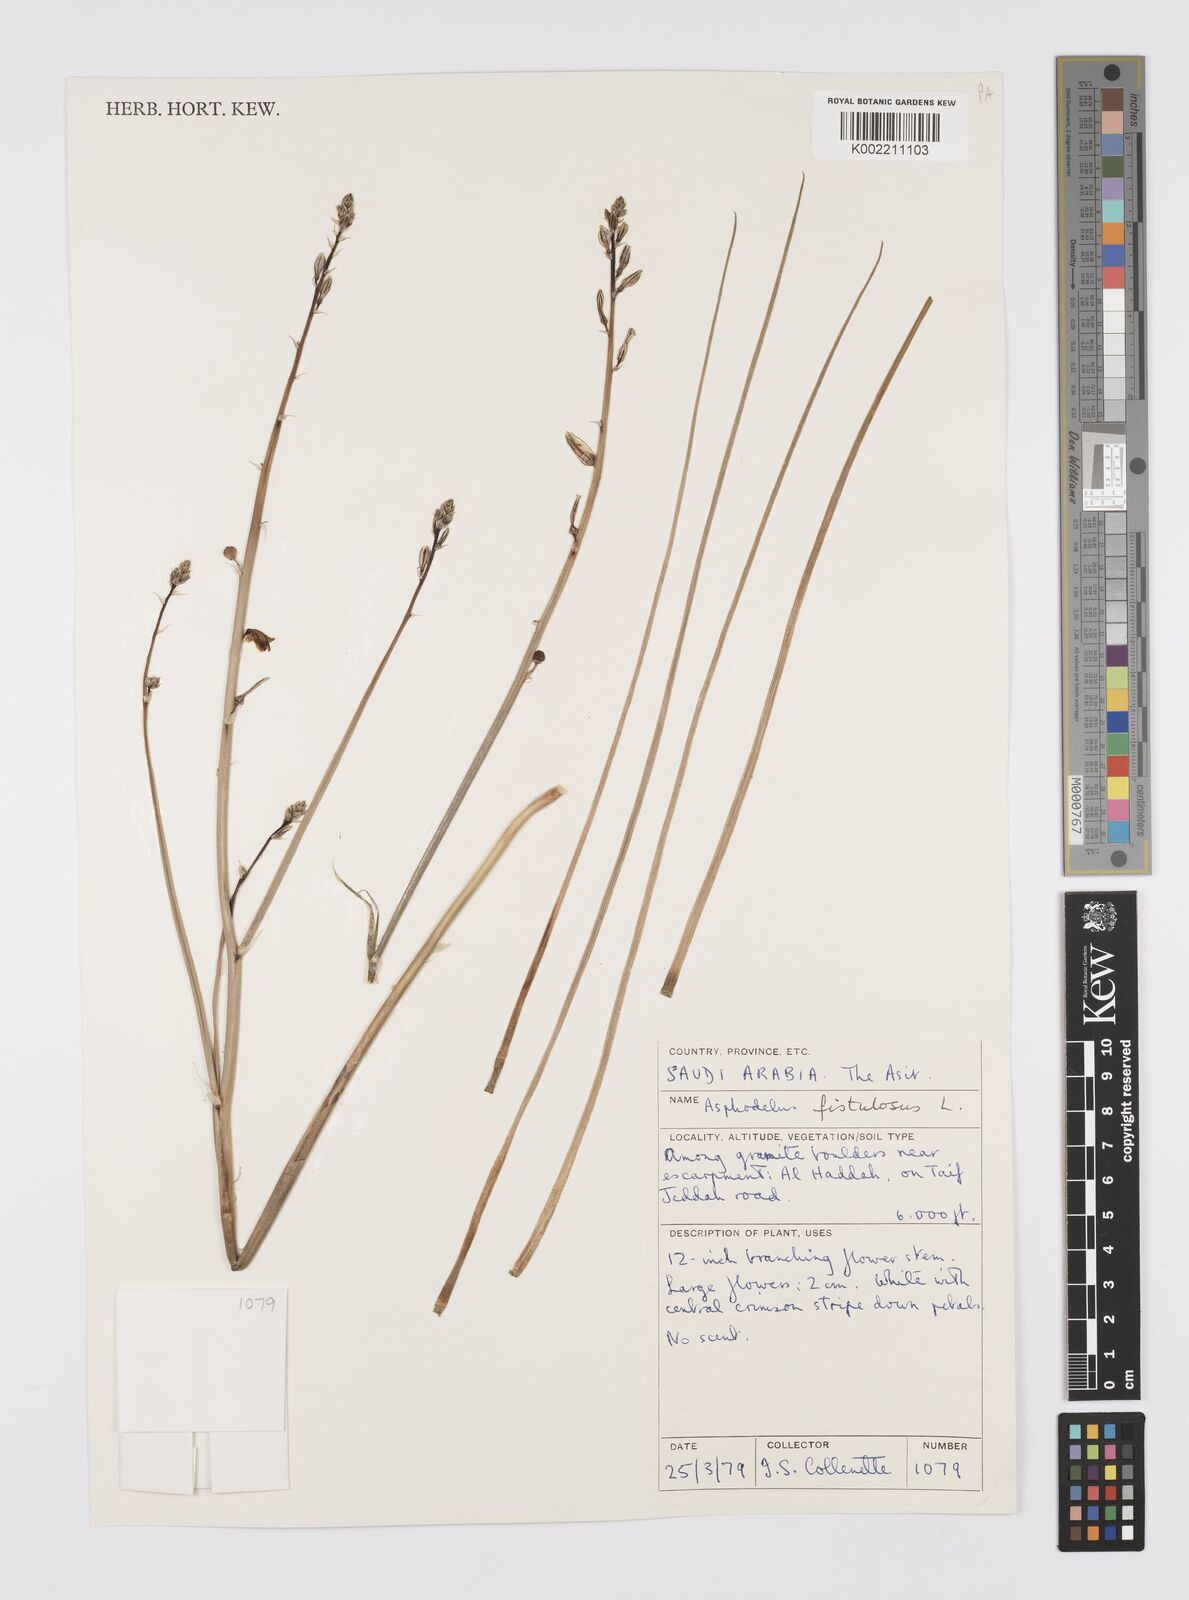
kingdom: Plantae
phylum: Tracheophyta
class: Liliopsida
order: Asparagales
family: Asphodelaceae
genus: Asphodelus
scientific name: Asphodelus fistulosus
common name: Onionweed
